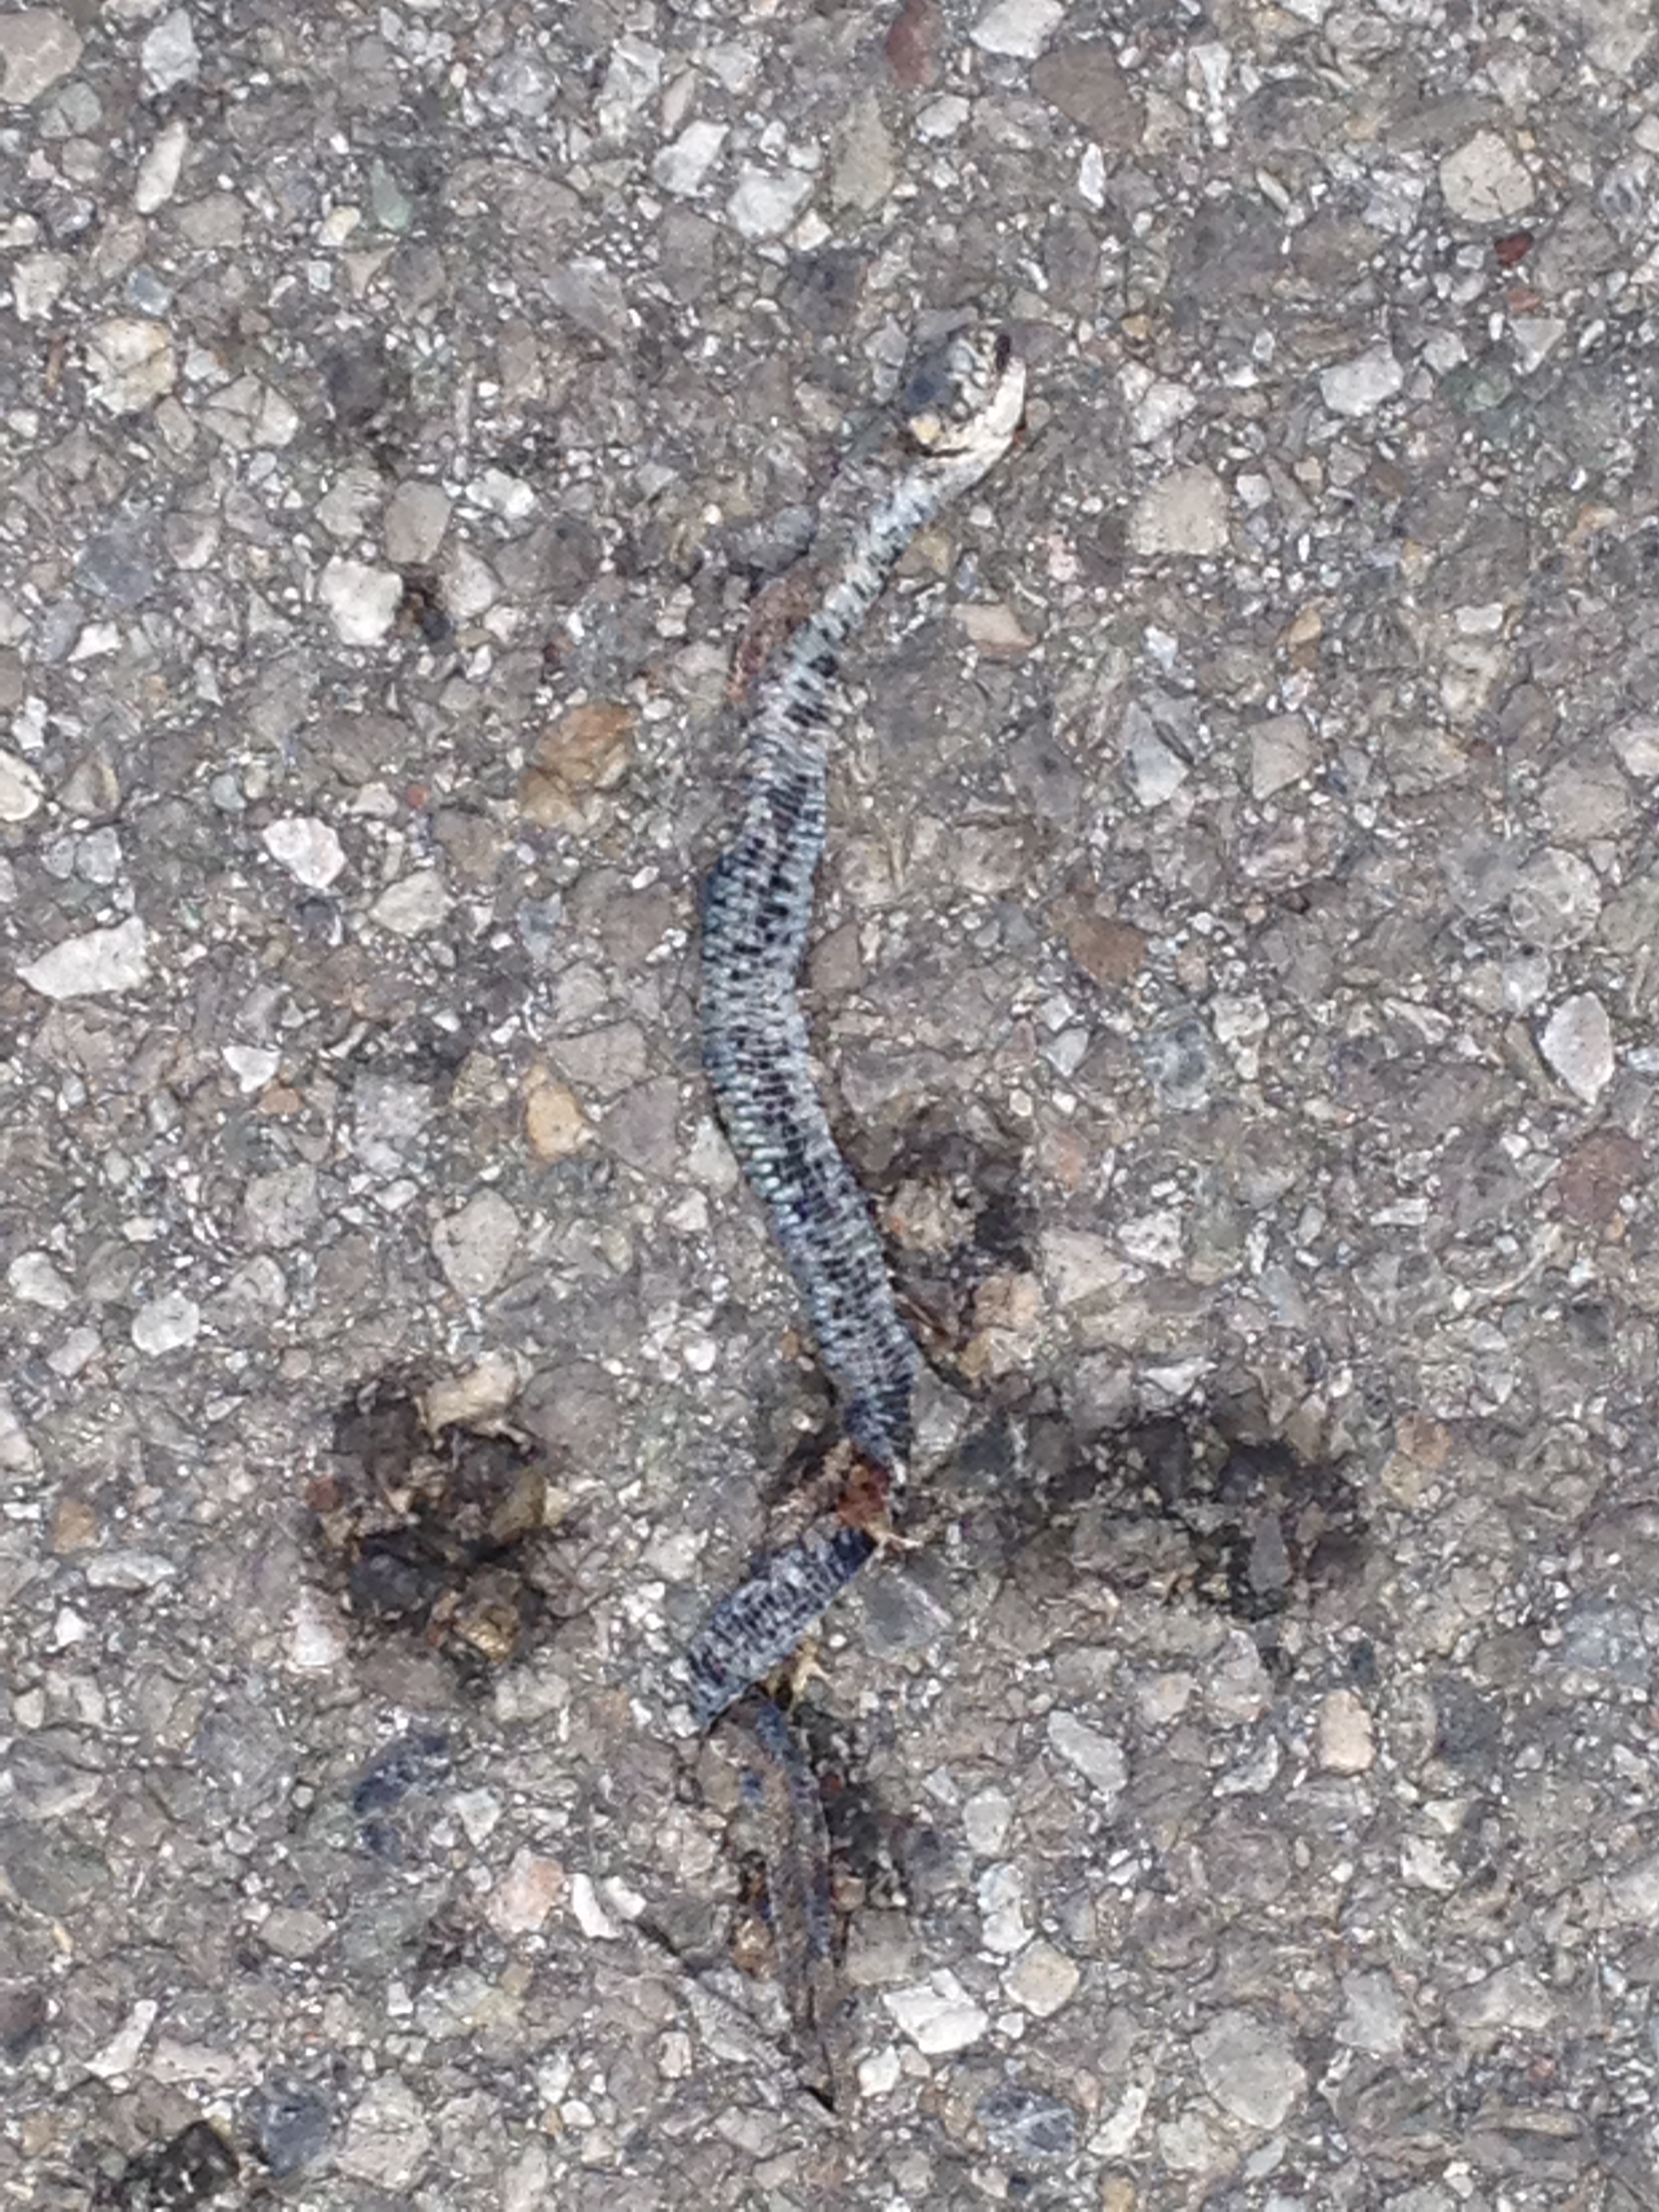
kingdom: Animalia
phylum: Chordata
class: Squamata
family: Colubridae
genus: Natrix
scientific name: Natrix natrix
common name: Grass snake
